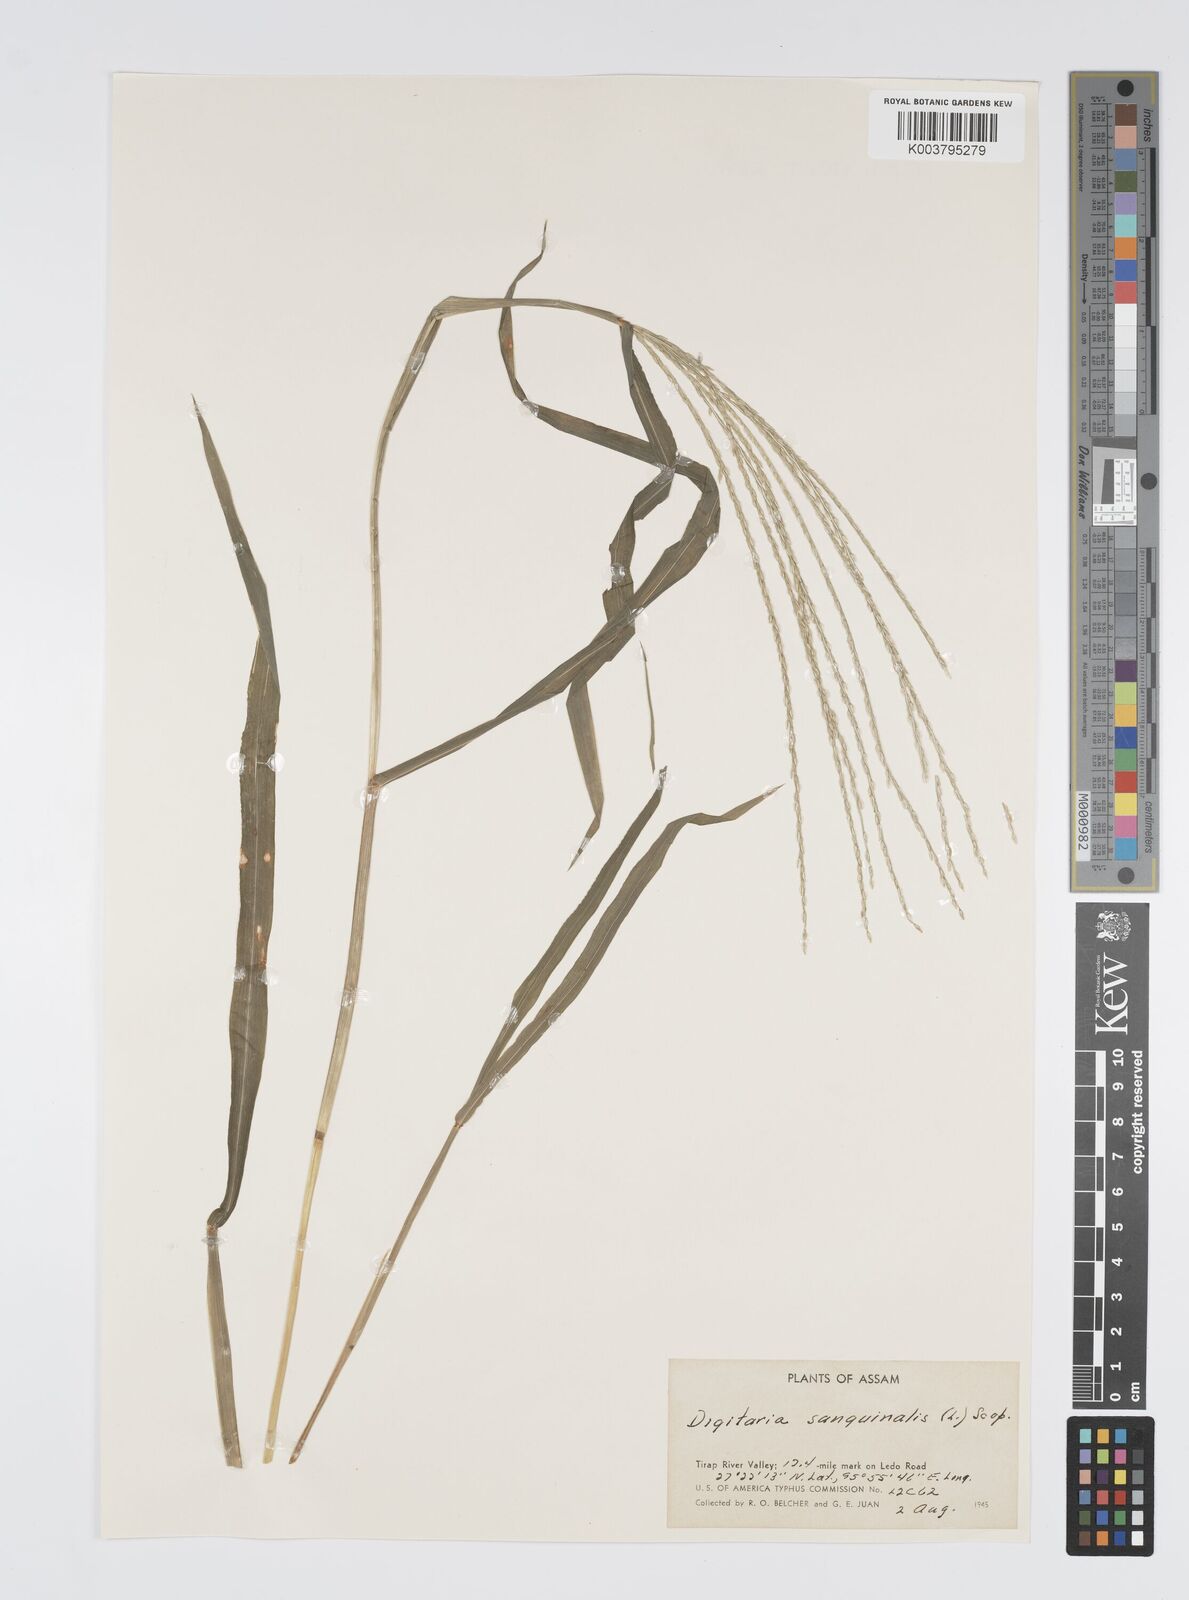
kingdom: Plantae
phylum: Tracheophyta
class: Liliopsida
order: Poales
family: Poaceae
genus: Digitaria
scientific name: Digitaria ciliaris
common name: Tropical finger-grass
